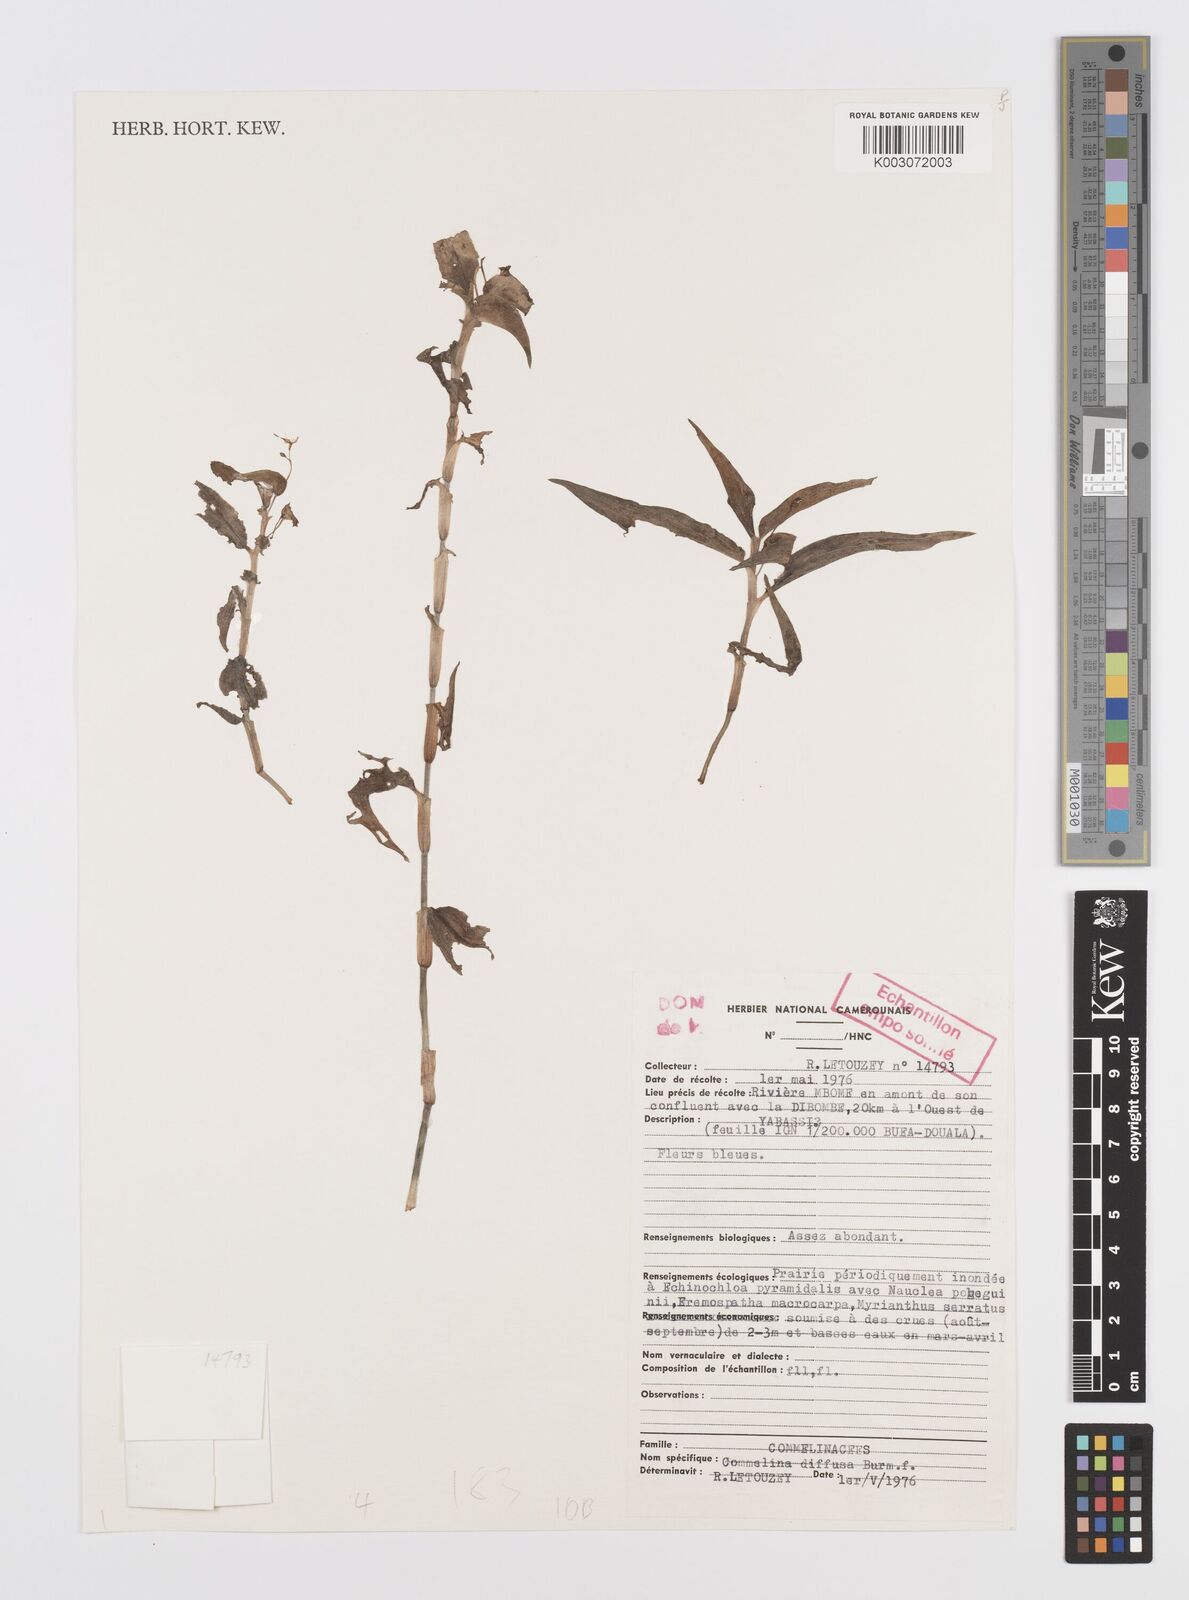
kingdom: Plantae
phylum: Tracheophyta
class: Liliopsida
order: Commelinales
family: Commelinaceae
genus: Commelina
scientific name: Commelina diffusa
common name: Climbing dayflower
